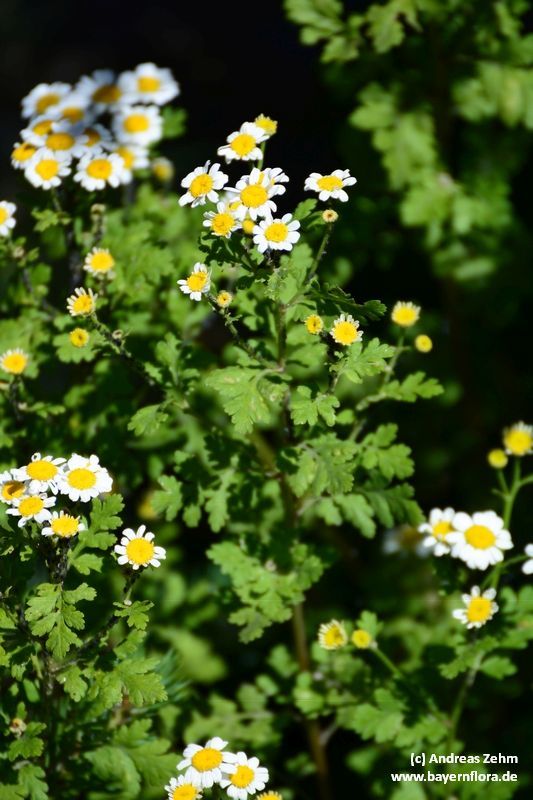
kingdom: Plantae
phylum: Tracheophyta
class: Magnoliopsida
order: Asterales
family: Asteraceae
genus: Tanacetum
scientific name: Tanacetum parthenium
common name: Feverfew
